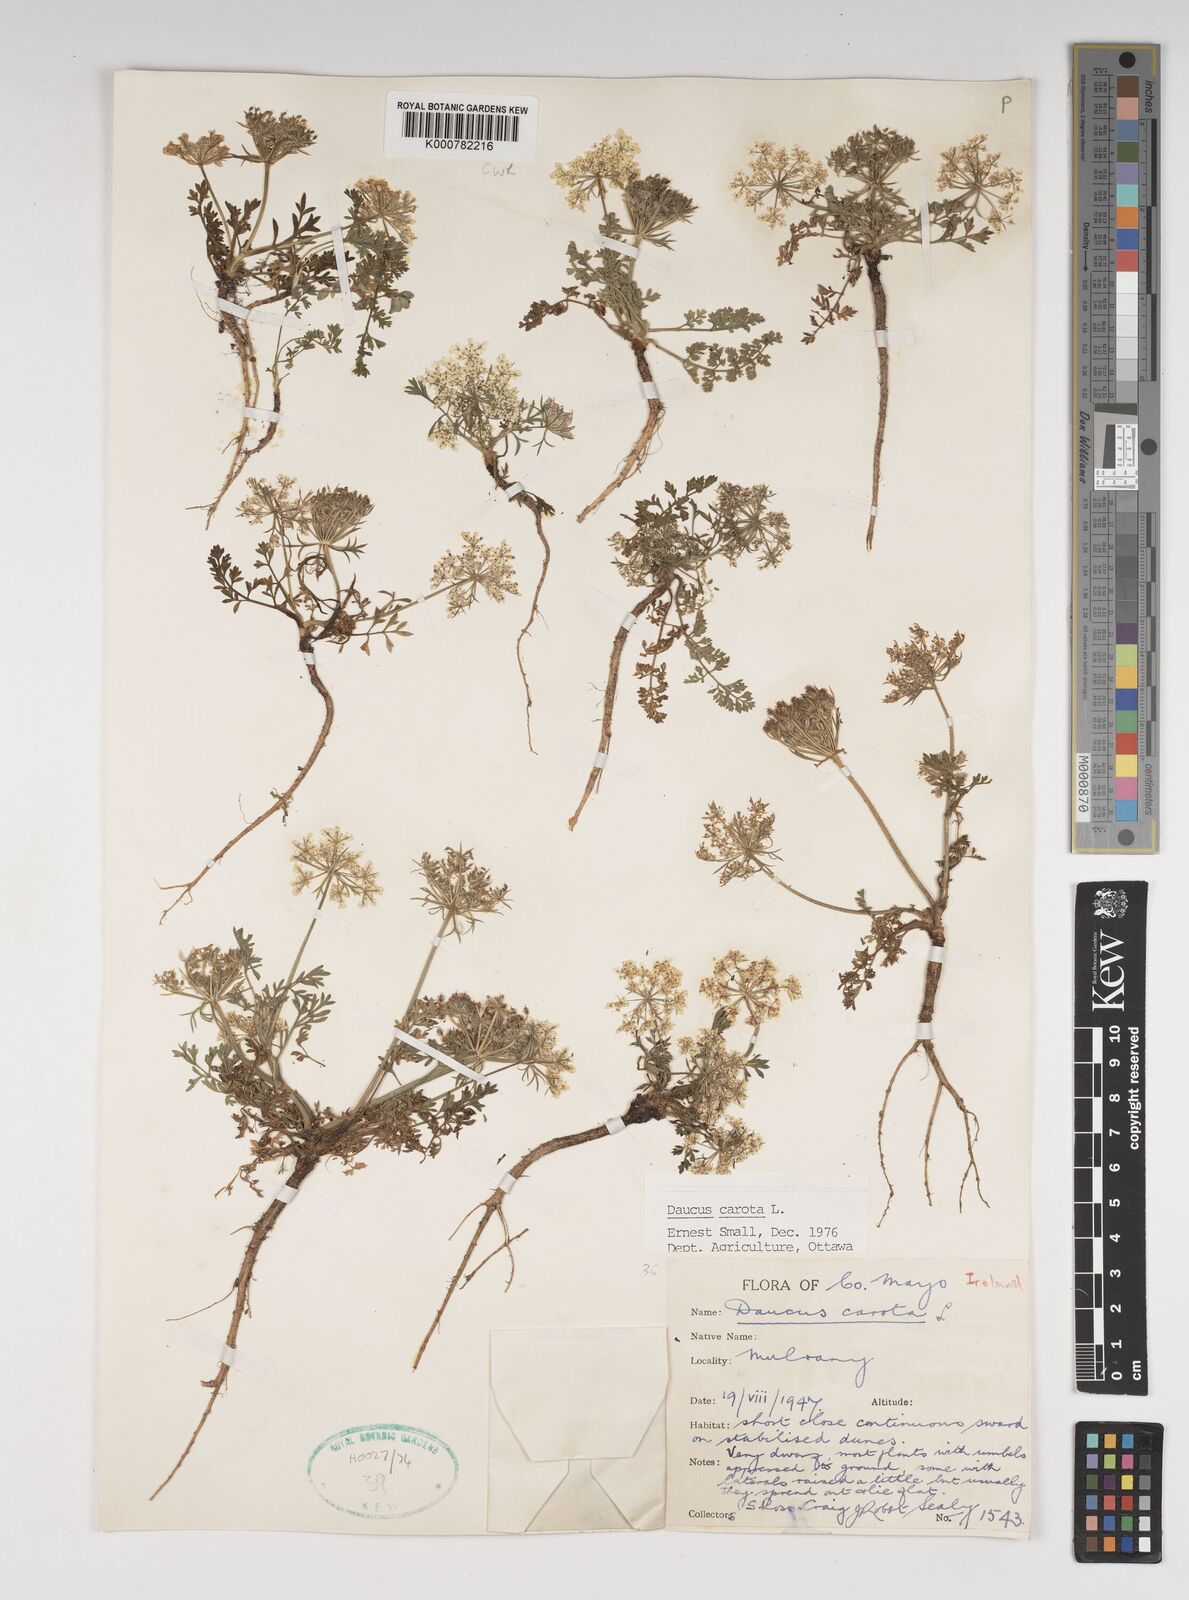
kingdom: Plantae
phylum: Tracheophyta
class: Magnoliopsida
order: Apiales
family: Apiaceae
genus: Daucus
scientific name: Daucus carota
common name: Wild carrot
